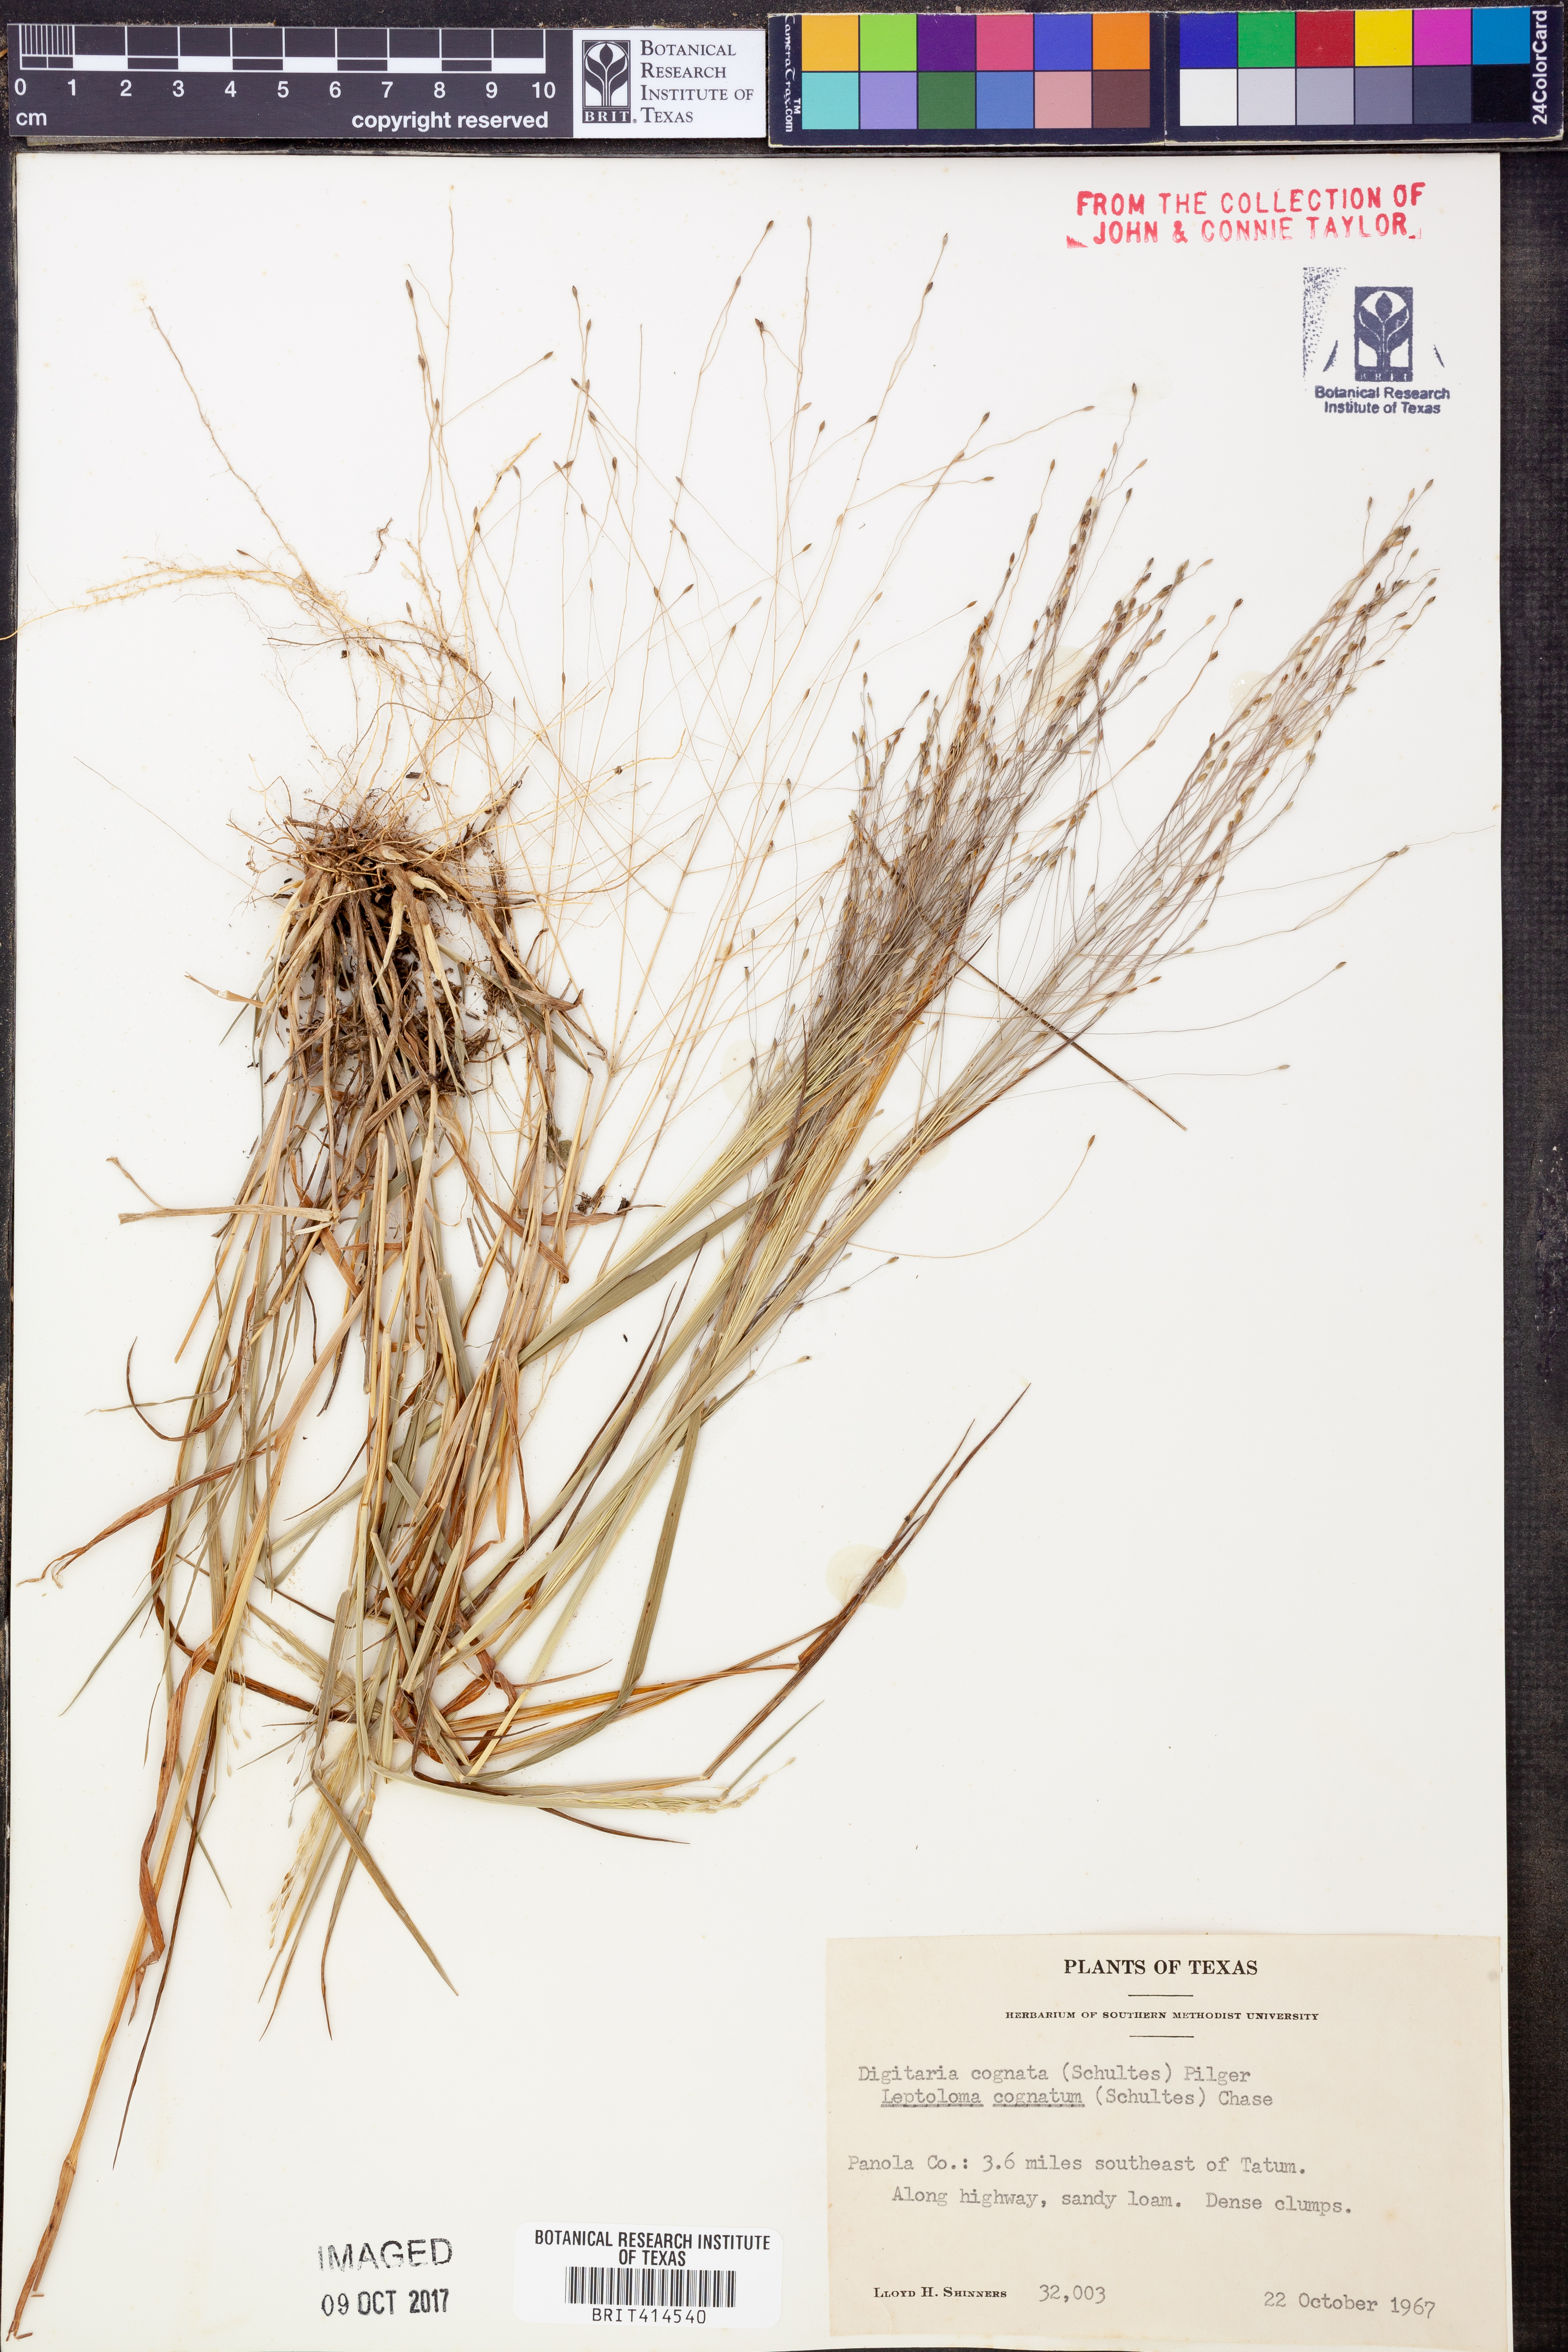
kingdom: Plantae
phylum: Tracheophyta
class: Liliopsida
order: Poales
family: Poaceae
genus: Digitaria
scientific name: Digitaria cognata
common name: Fall witchgrass
